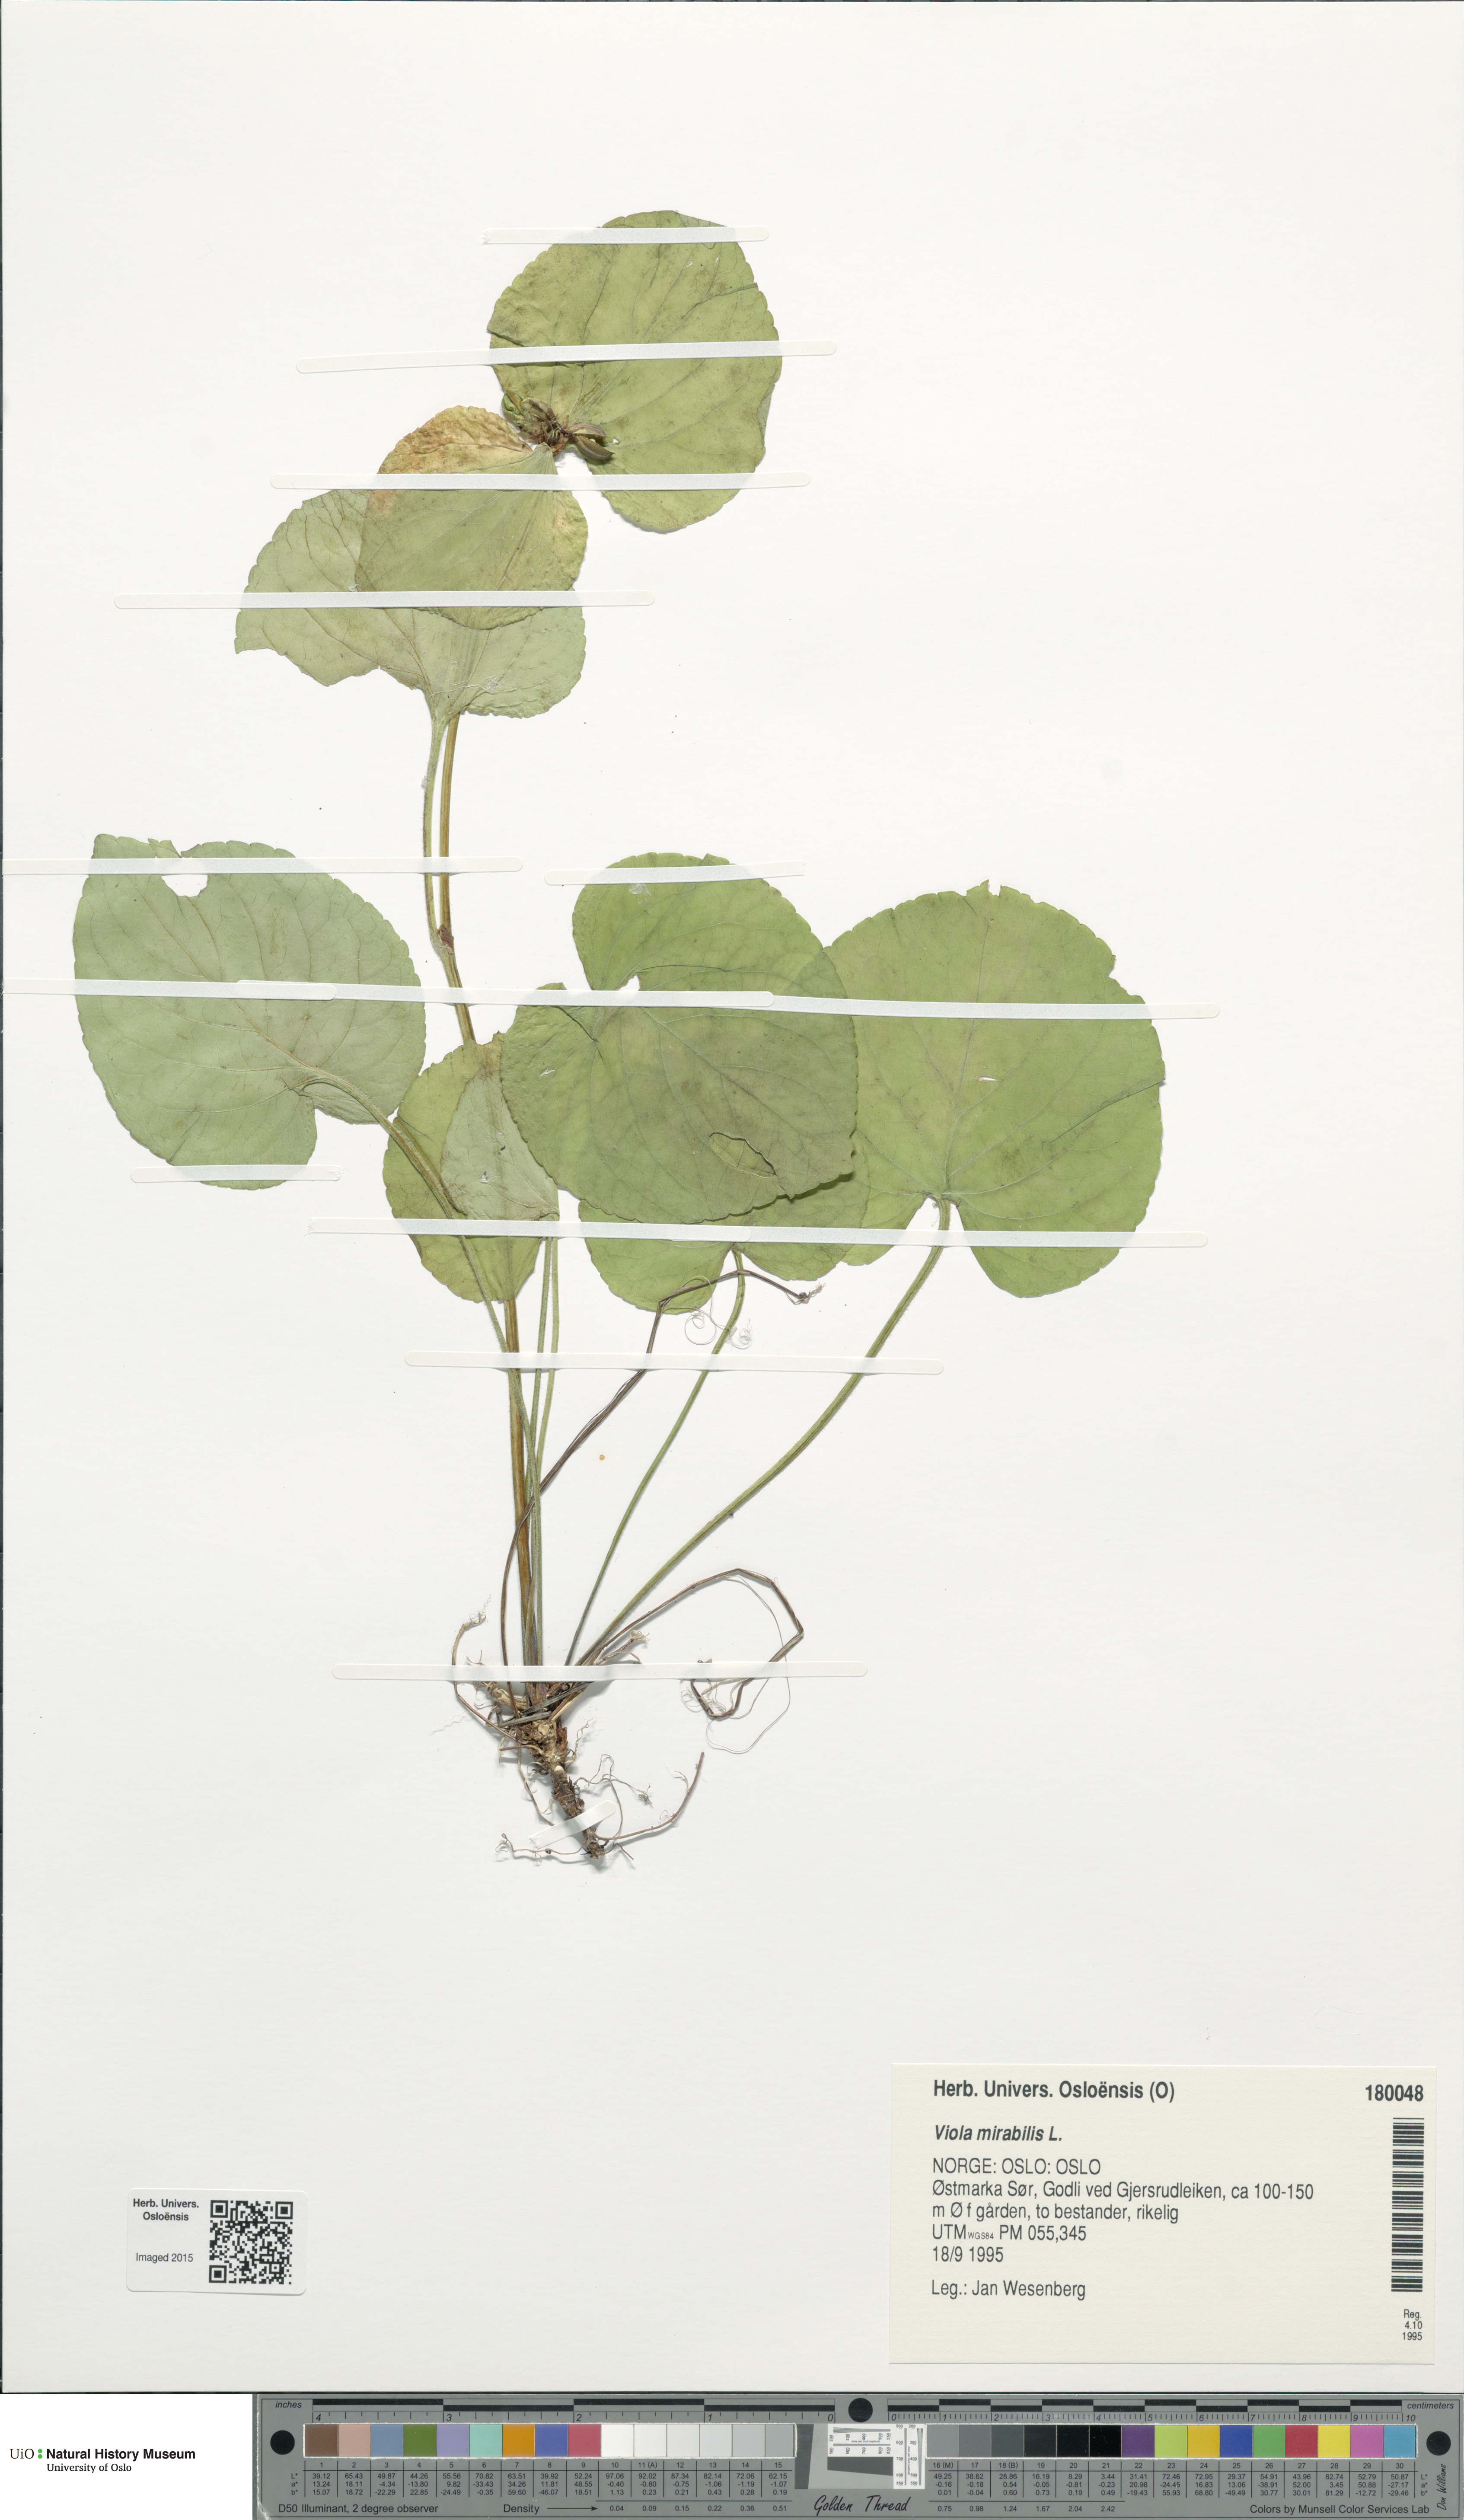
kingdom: Plantae
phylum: Tracheophyta
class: Magnoliopsida
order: Malpighiales
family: Violaceae
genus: Viola
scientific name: Viola mirabilis
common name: Wonder violet
